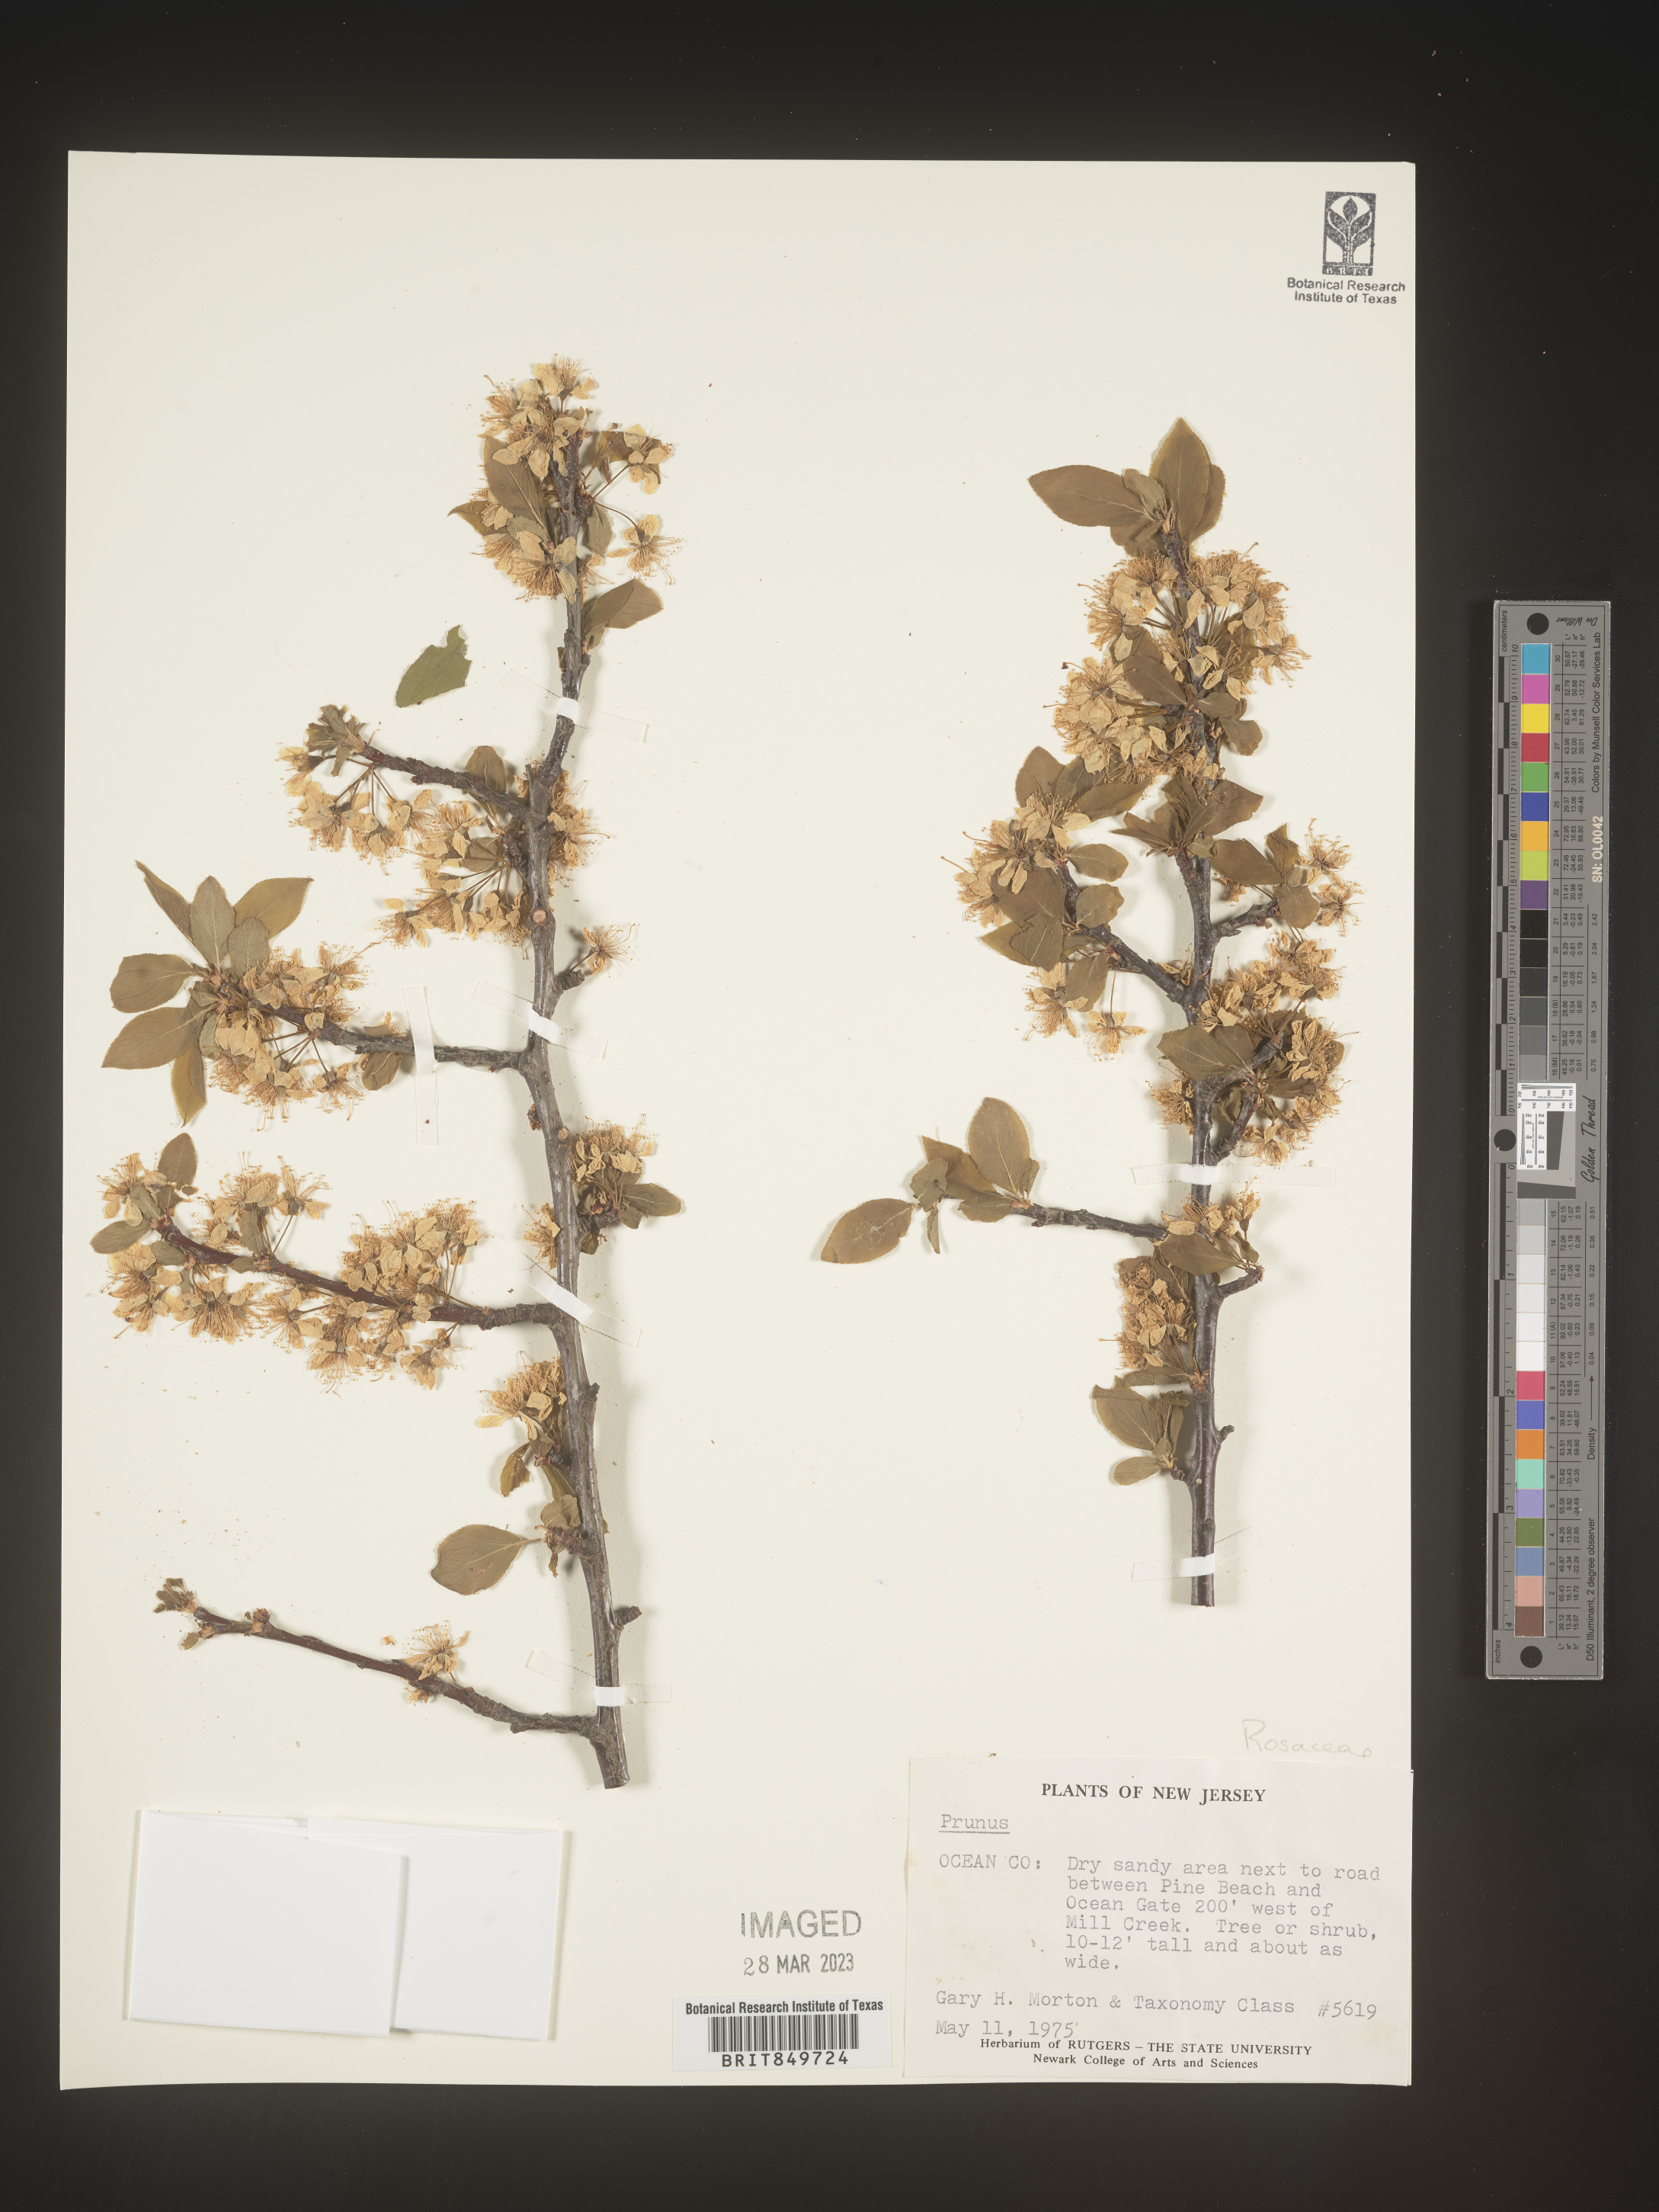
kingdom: Plantae
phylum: Tracheophyta
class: Magnoliopsida
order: Rosales
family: Rosaceae
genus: Prunus
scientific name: Prunus
